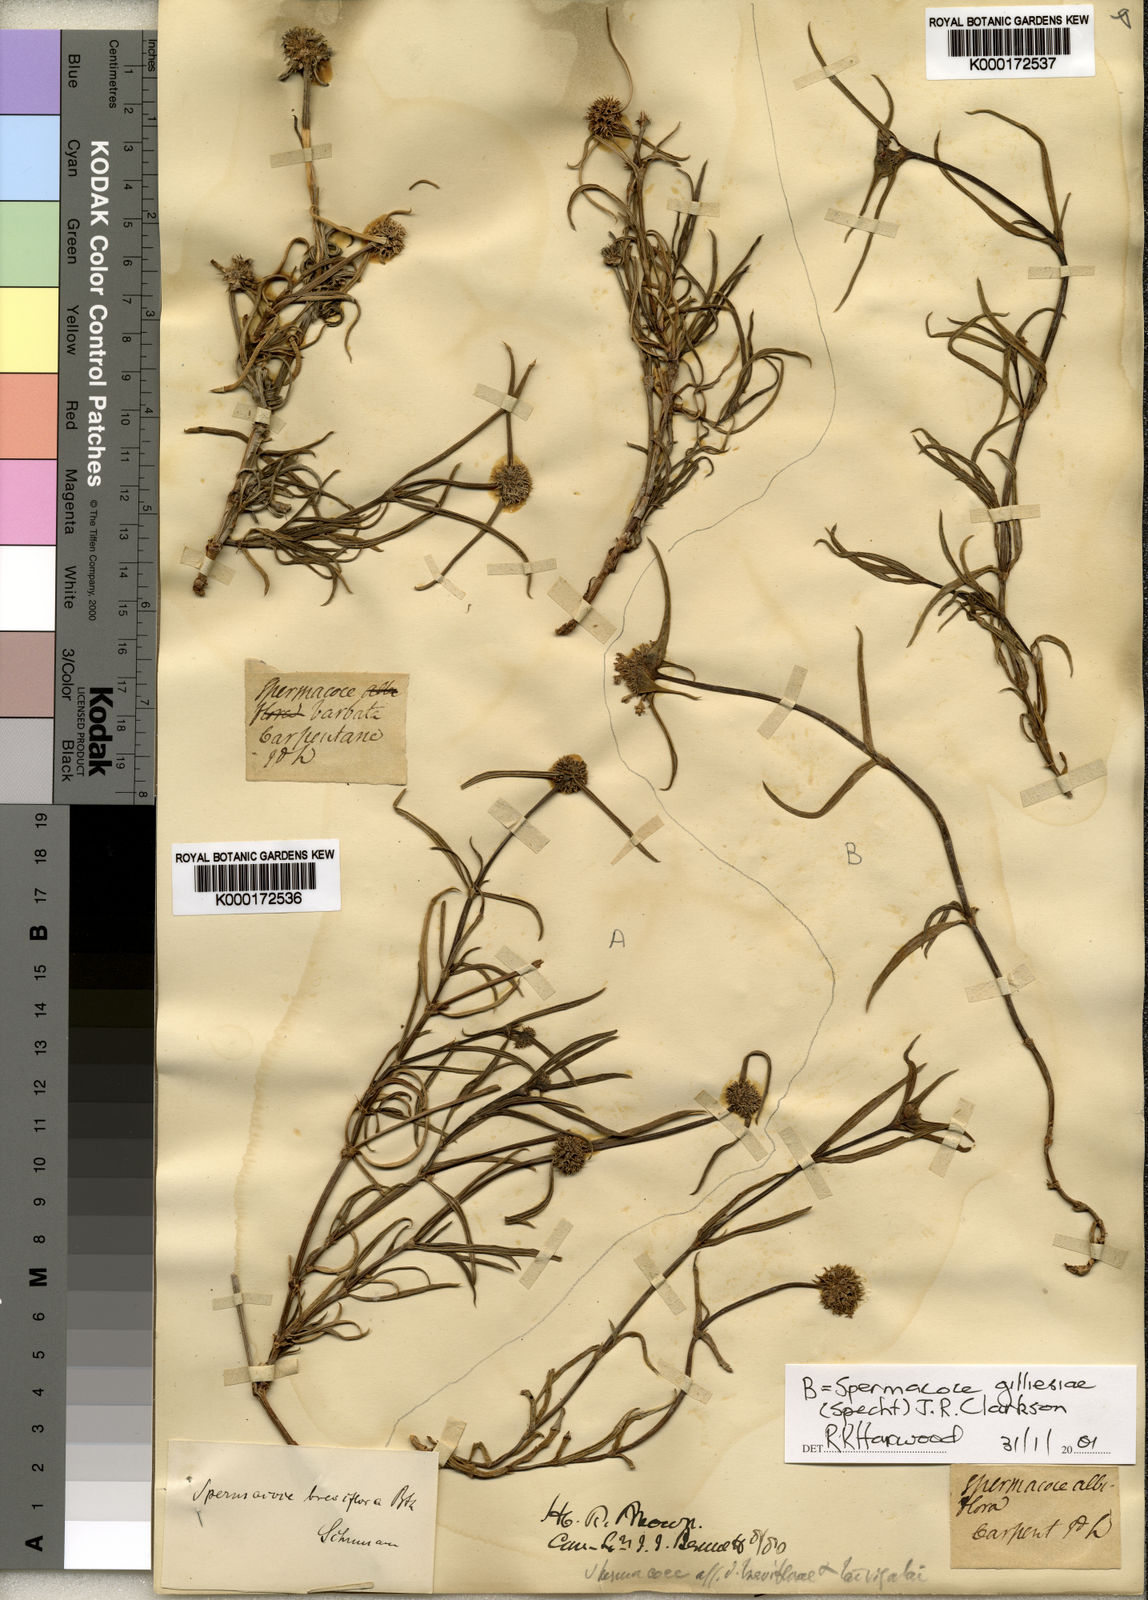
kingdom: Plantae
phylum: Tracheophyta
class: Magnoliopsida
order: Gentianales
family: Rubiaceae
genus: Spermacoce
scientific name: Spermacoce breviflora
